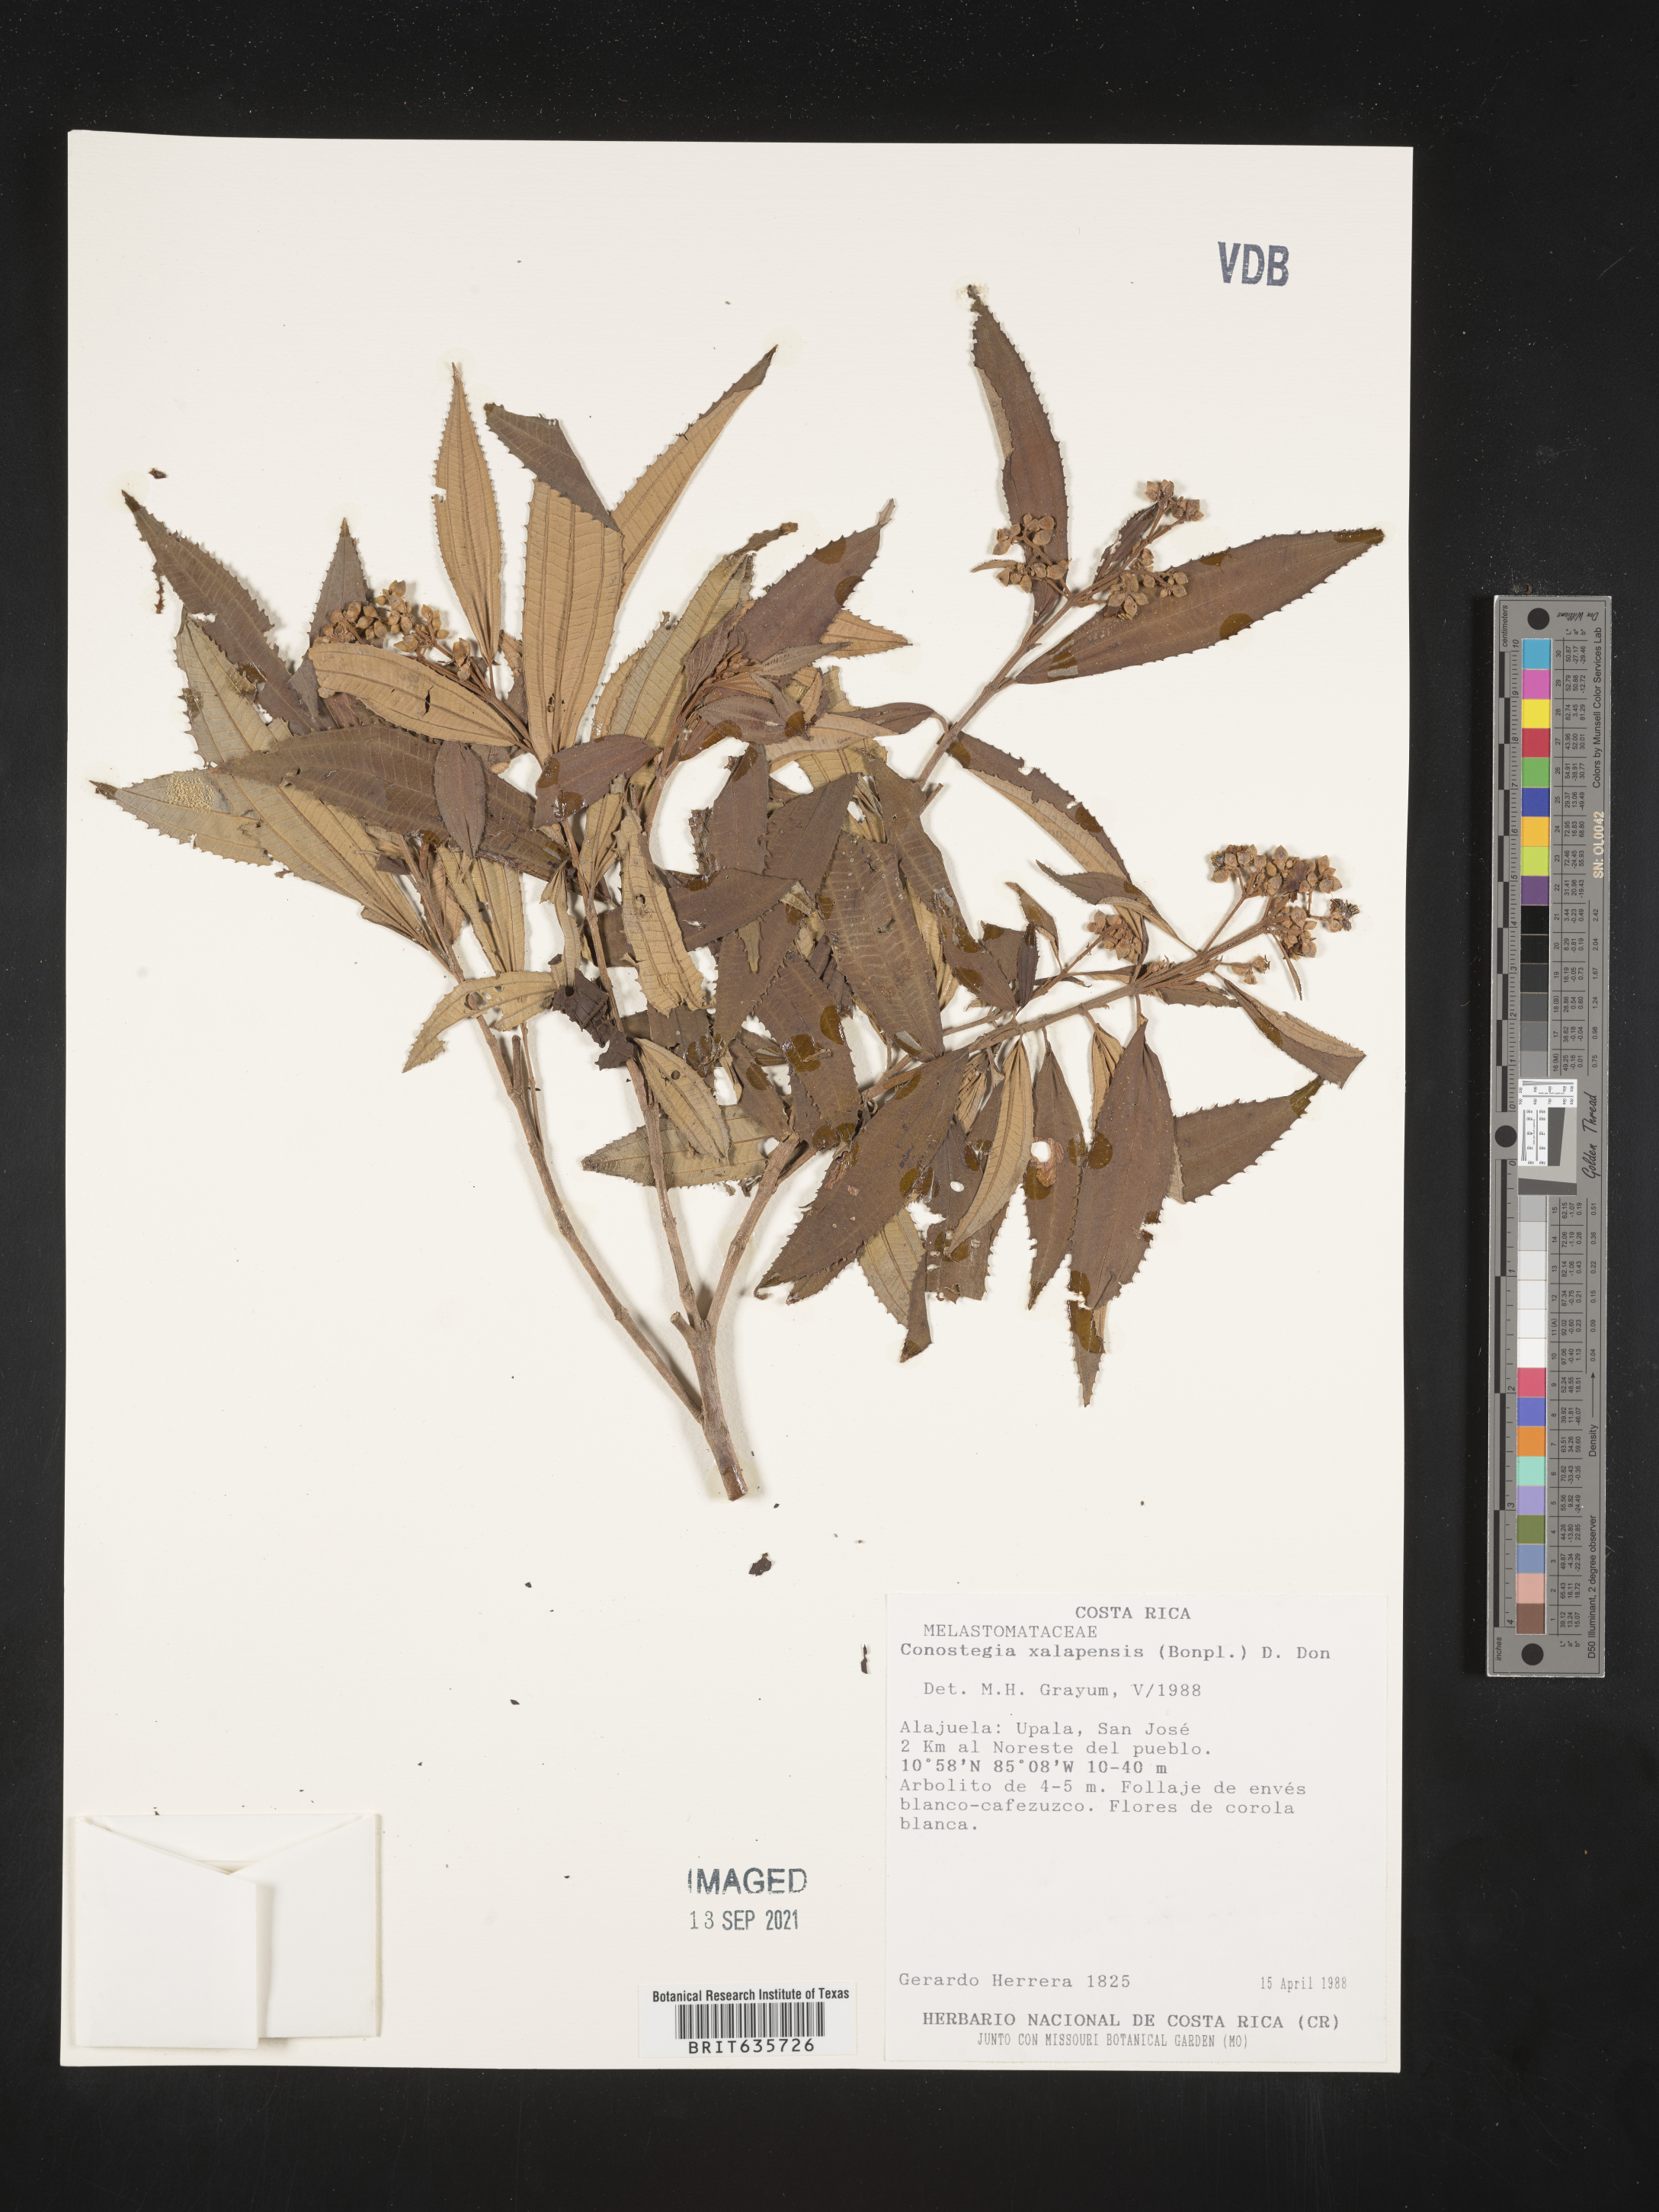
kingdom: Plantae
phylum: Tracheophyta
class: Magnoliopsida
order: Myrtales
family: Melastomataceae
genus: Miconia
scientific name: Miconia
